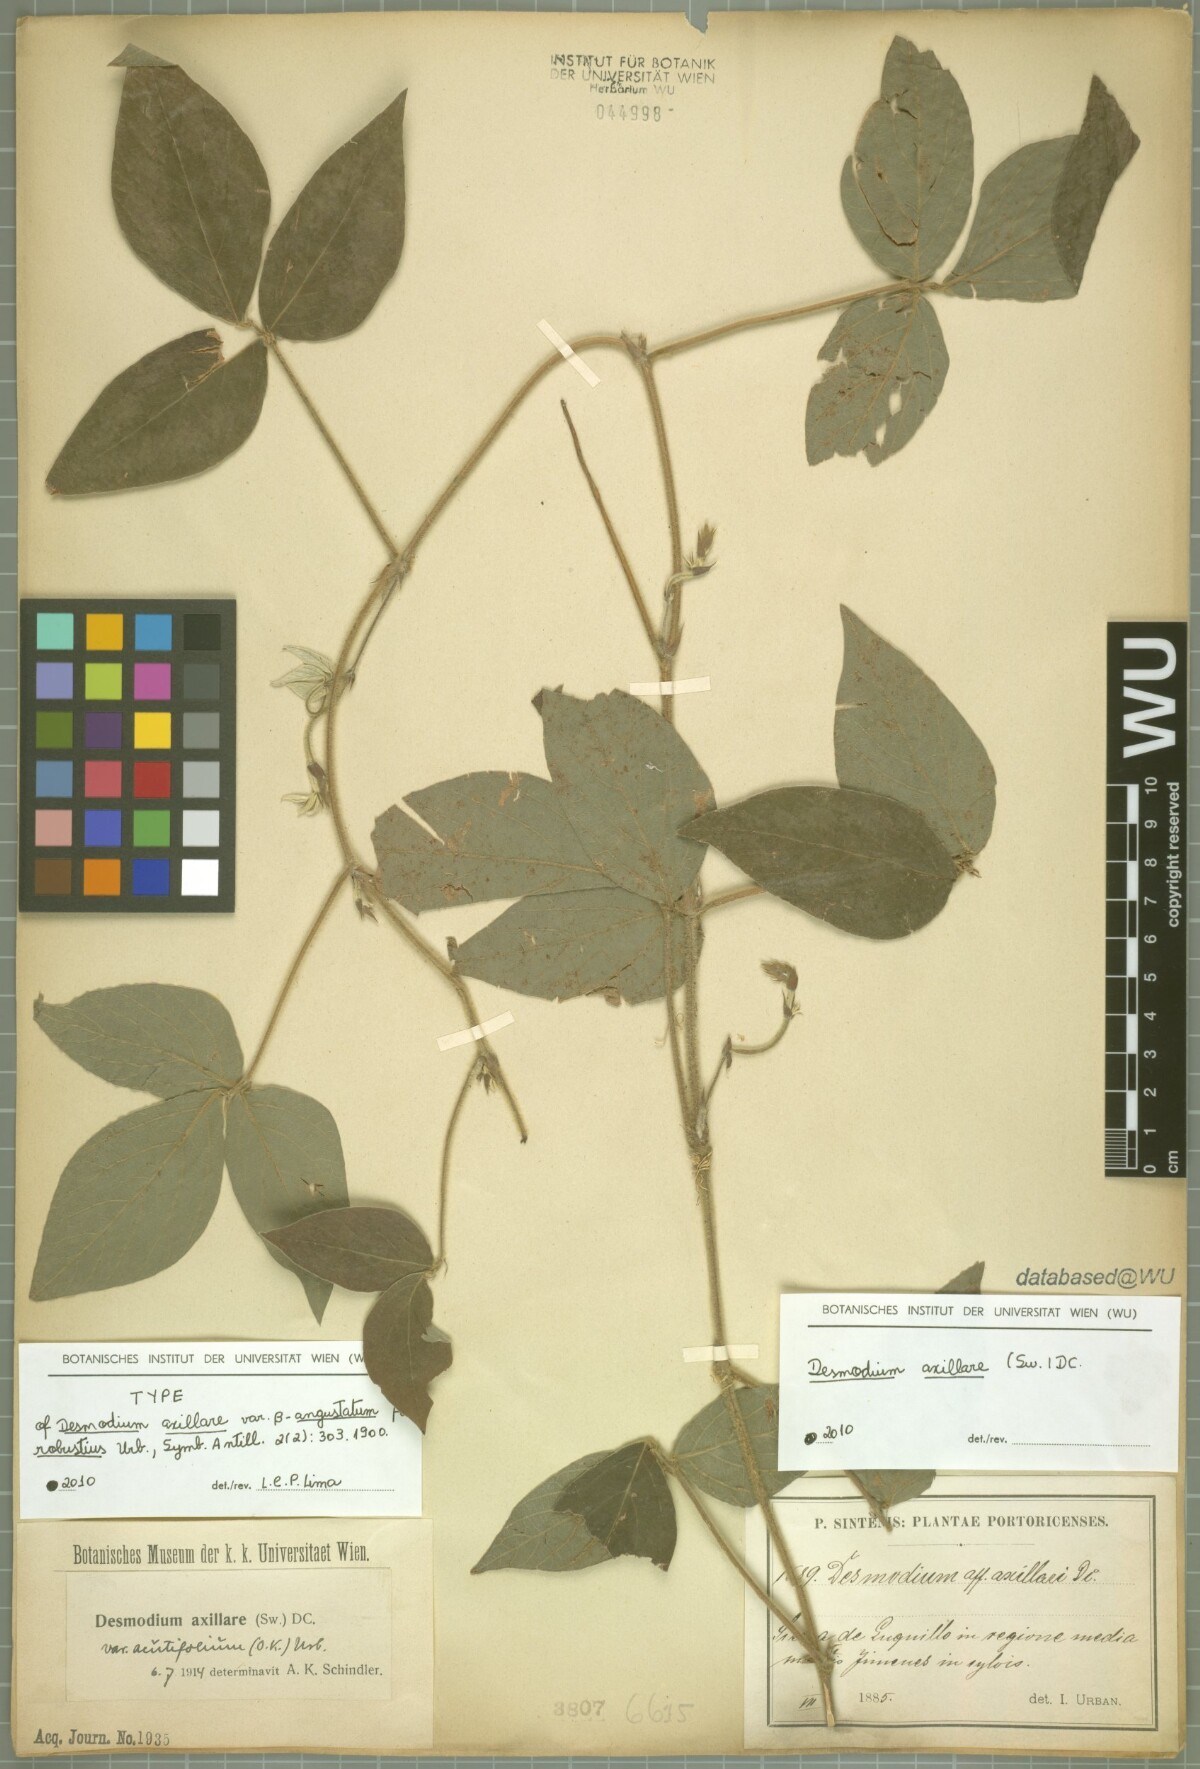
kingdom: Plantae
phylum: Tracheophyta
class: Magnoliopsida
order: Fabales
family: Fabaceae
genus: Desmodium
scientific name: Desmodium axillare
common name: Wire with
